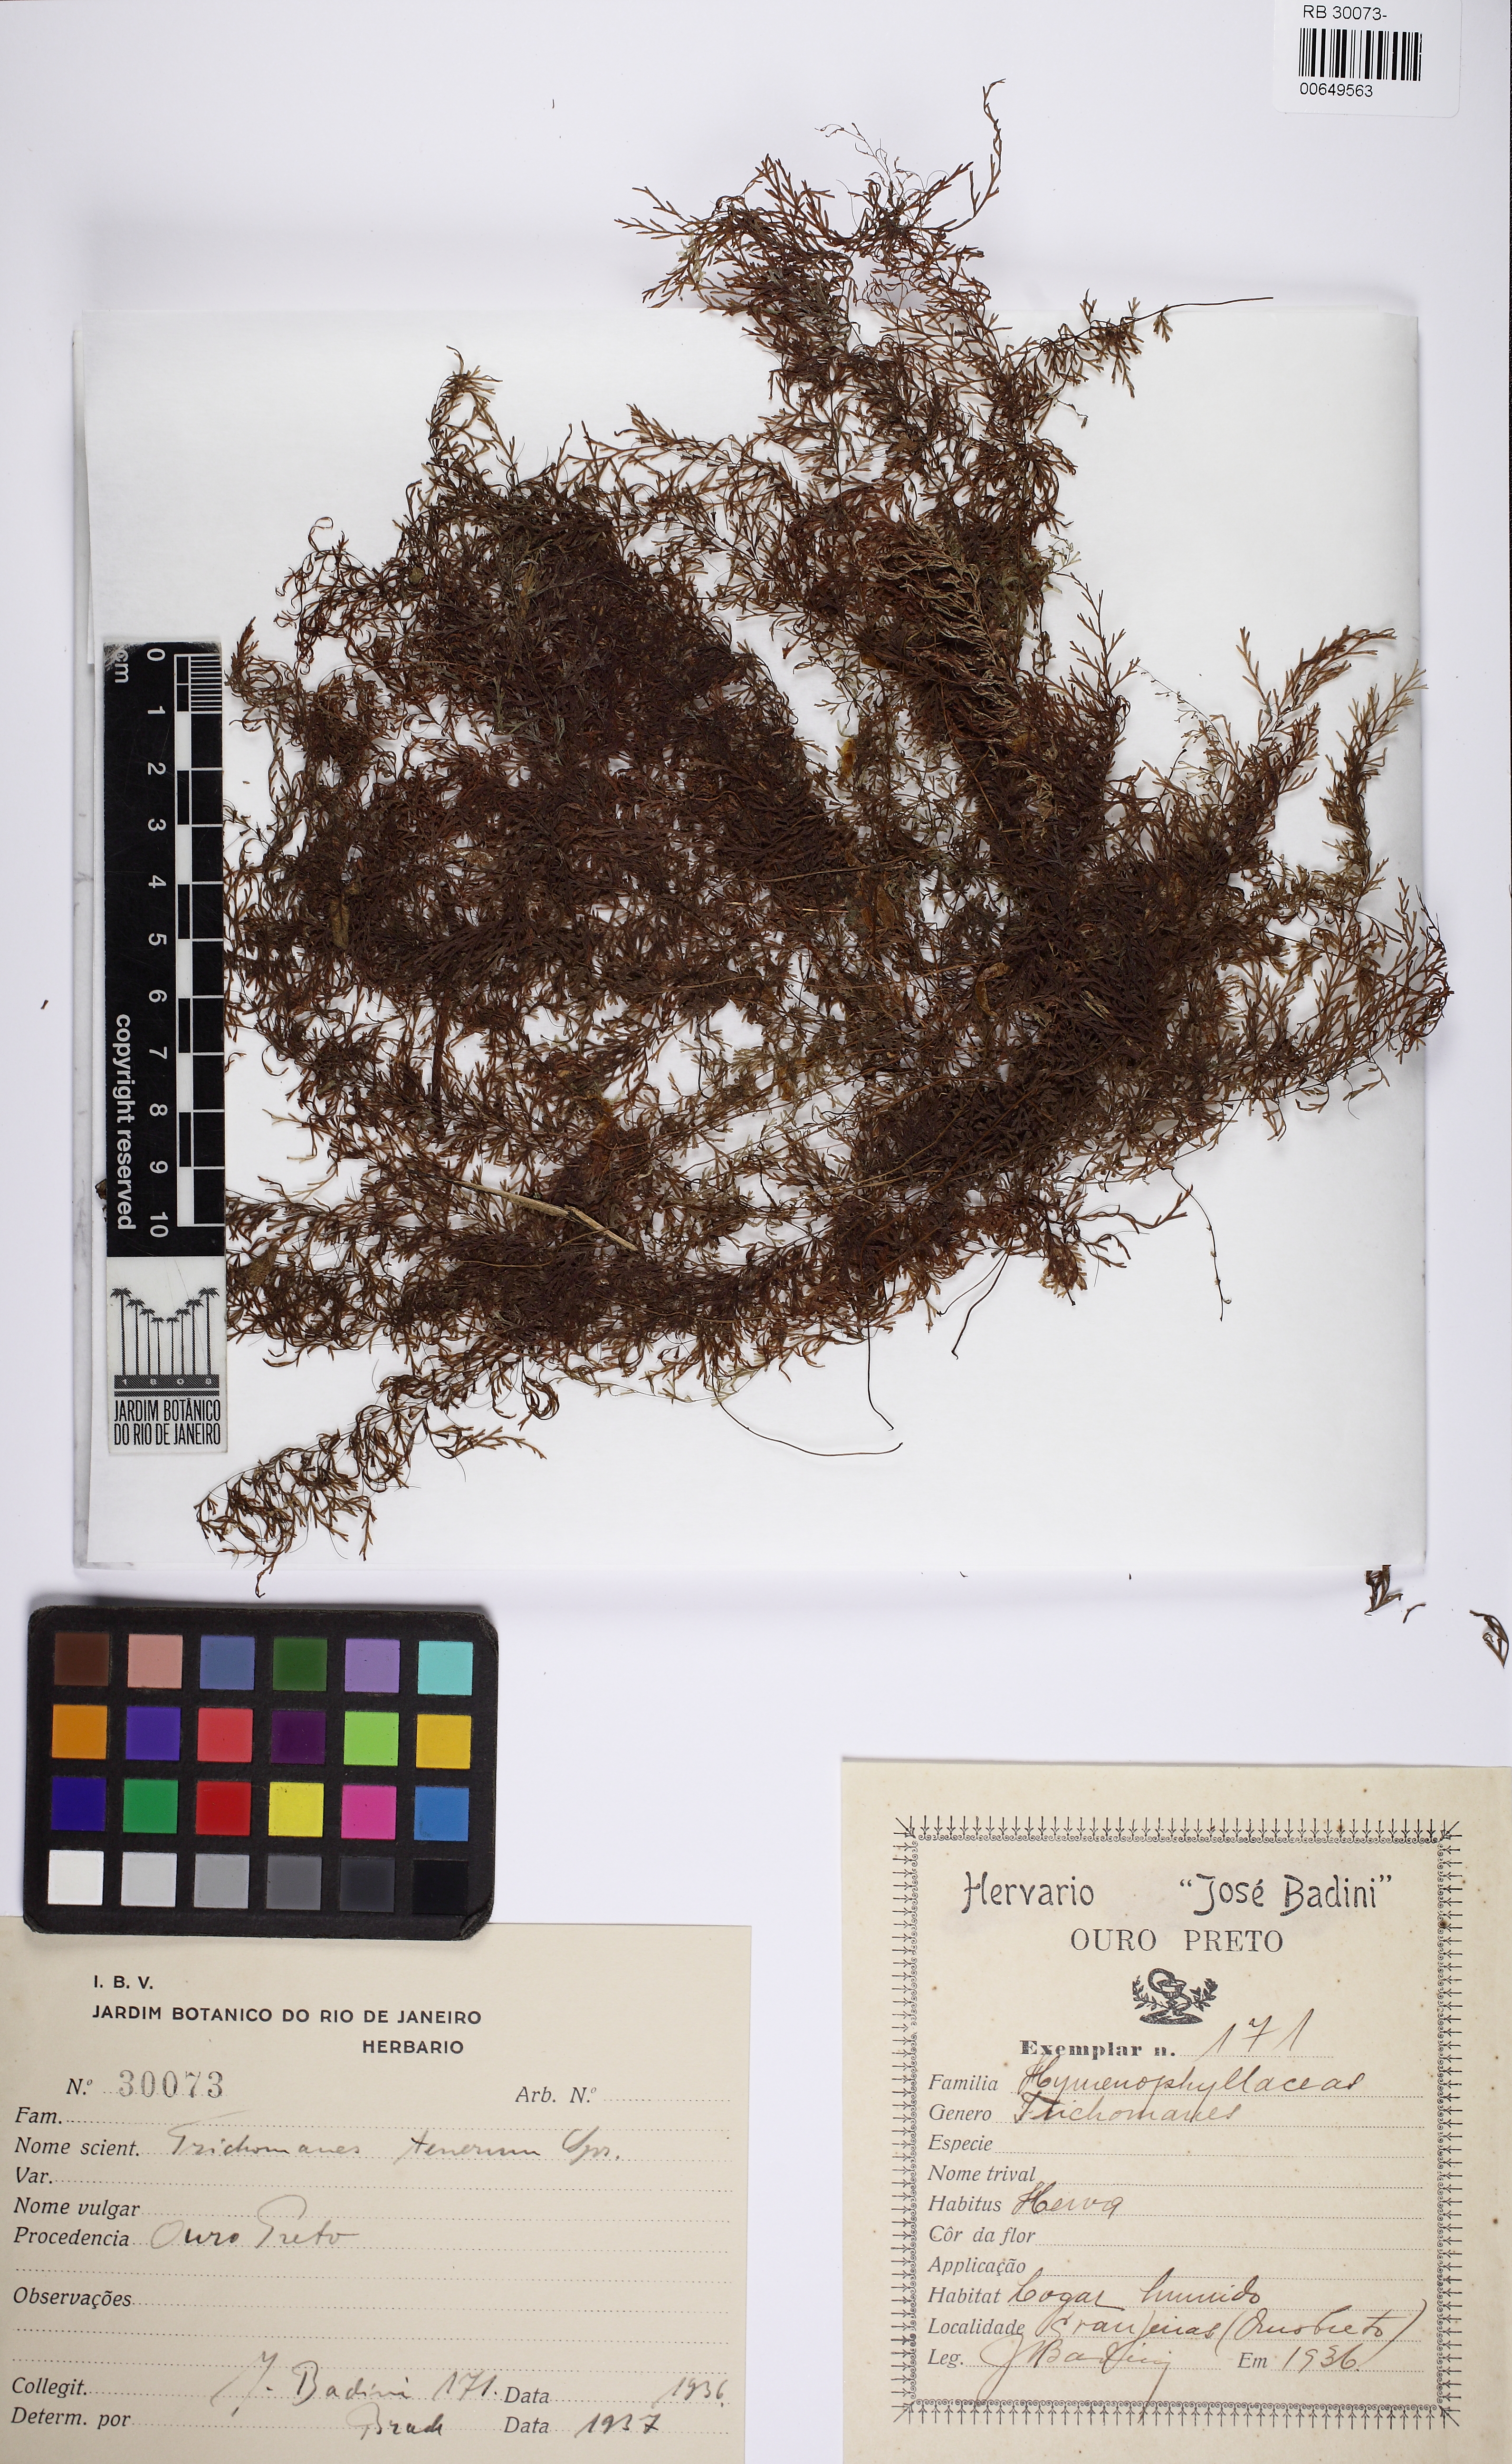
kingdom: Plantae
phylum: Tracheophyta
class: Polypodiopsida
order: Hymenophyllales
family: Hymenophyllaceae
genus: Polyphlebium
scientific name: Polyphlebium angustatum
